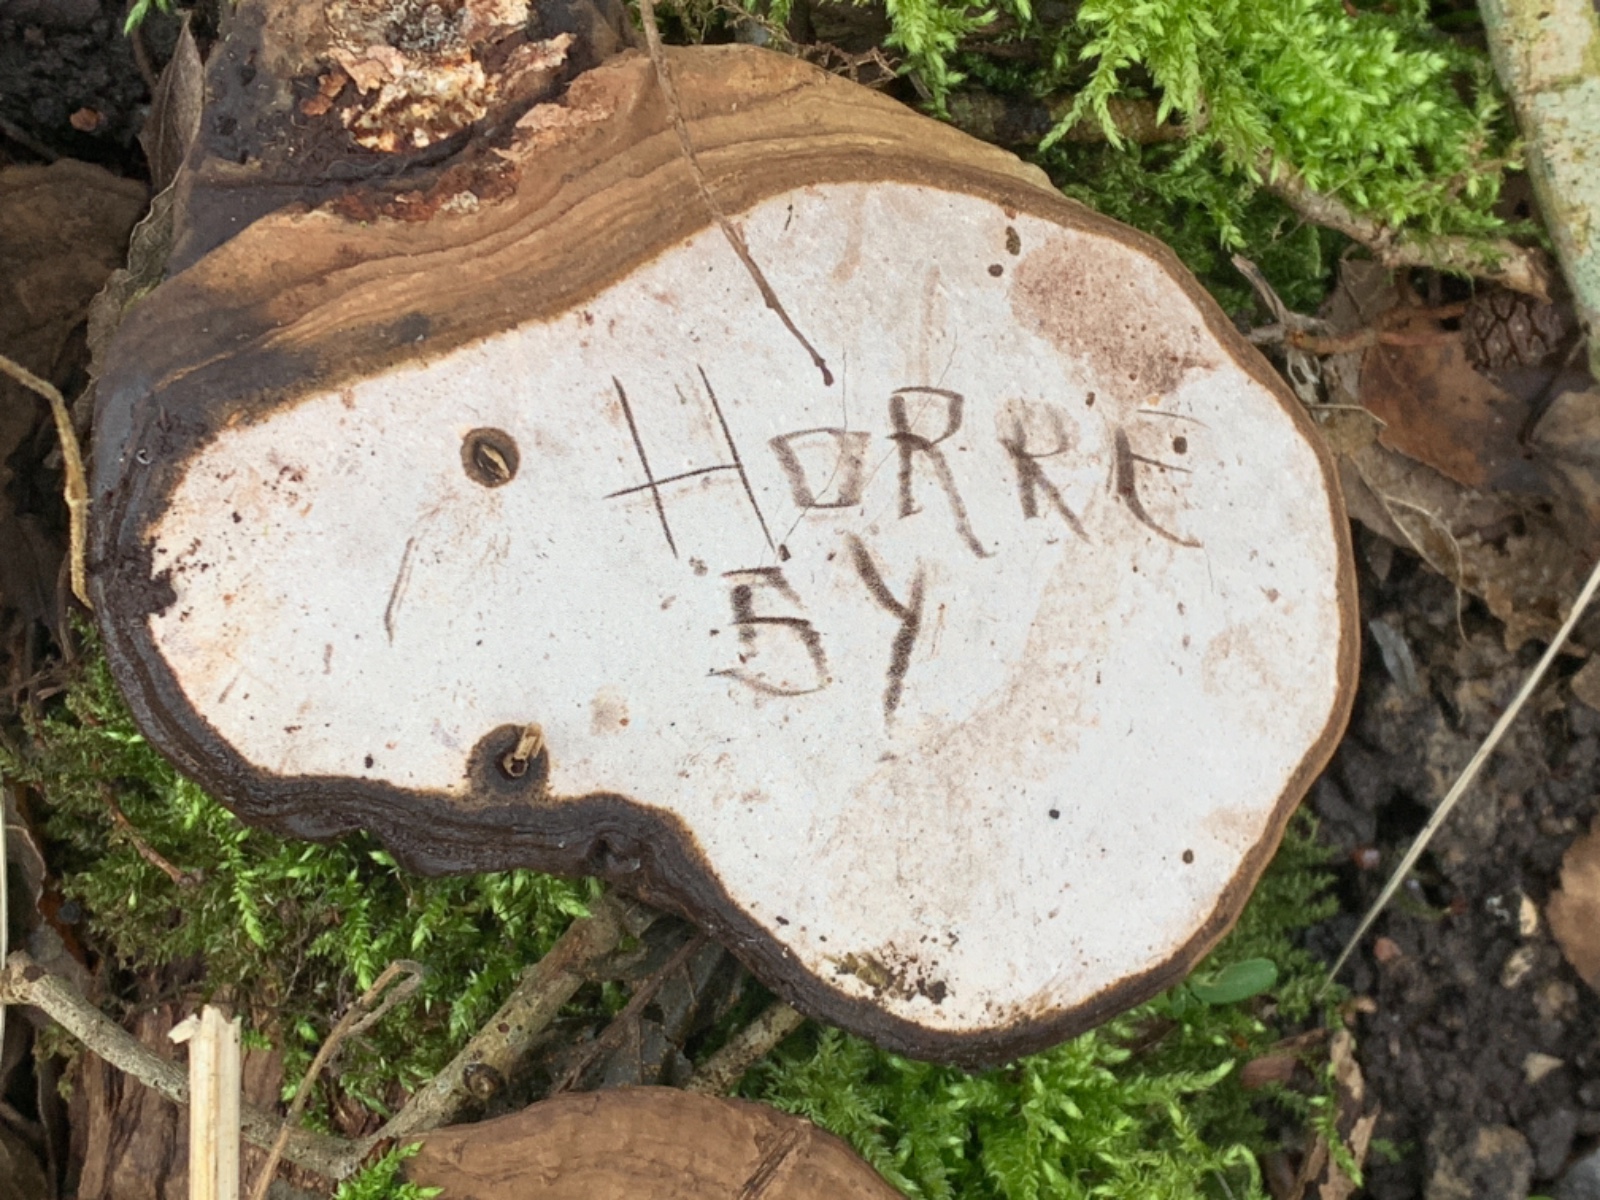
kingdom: Fungi
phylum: Basidiomycota
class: Agaricomycetes
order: Polyporales
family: Polyporaceae
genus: Ganoderma
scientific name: Ganoderma applanatum
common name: flad lakporesvamp
